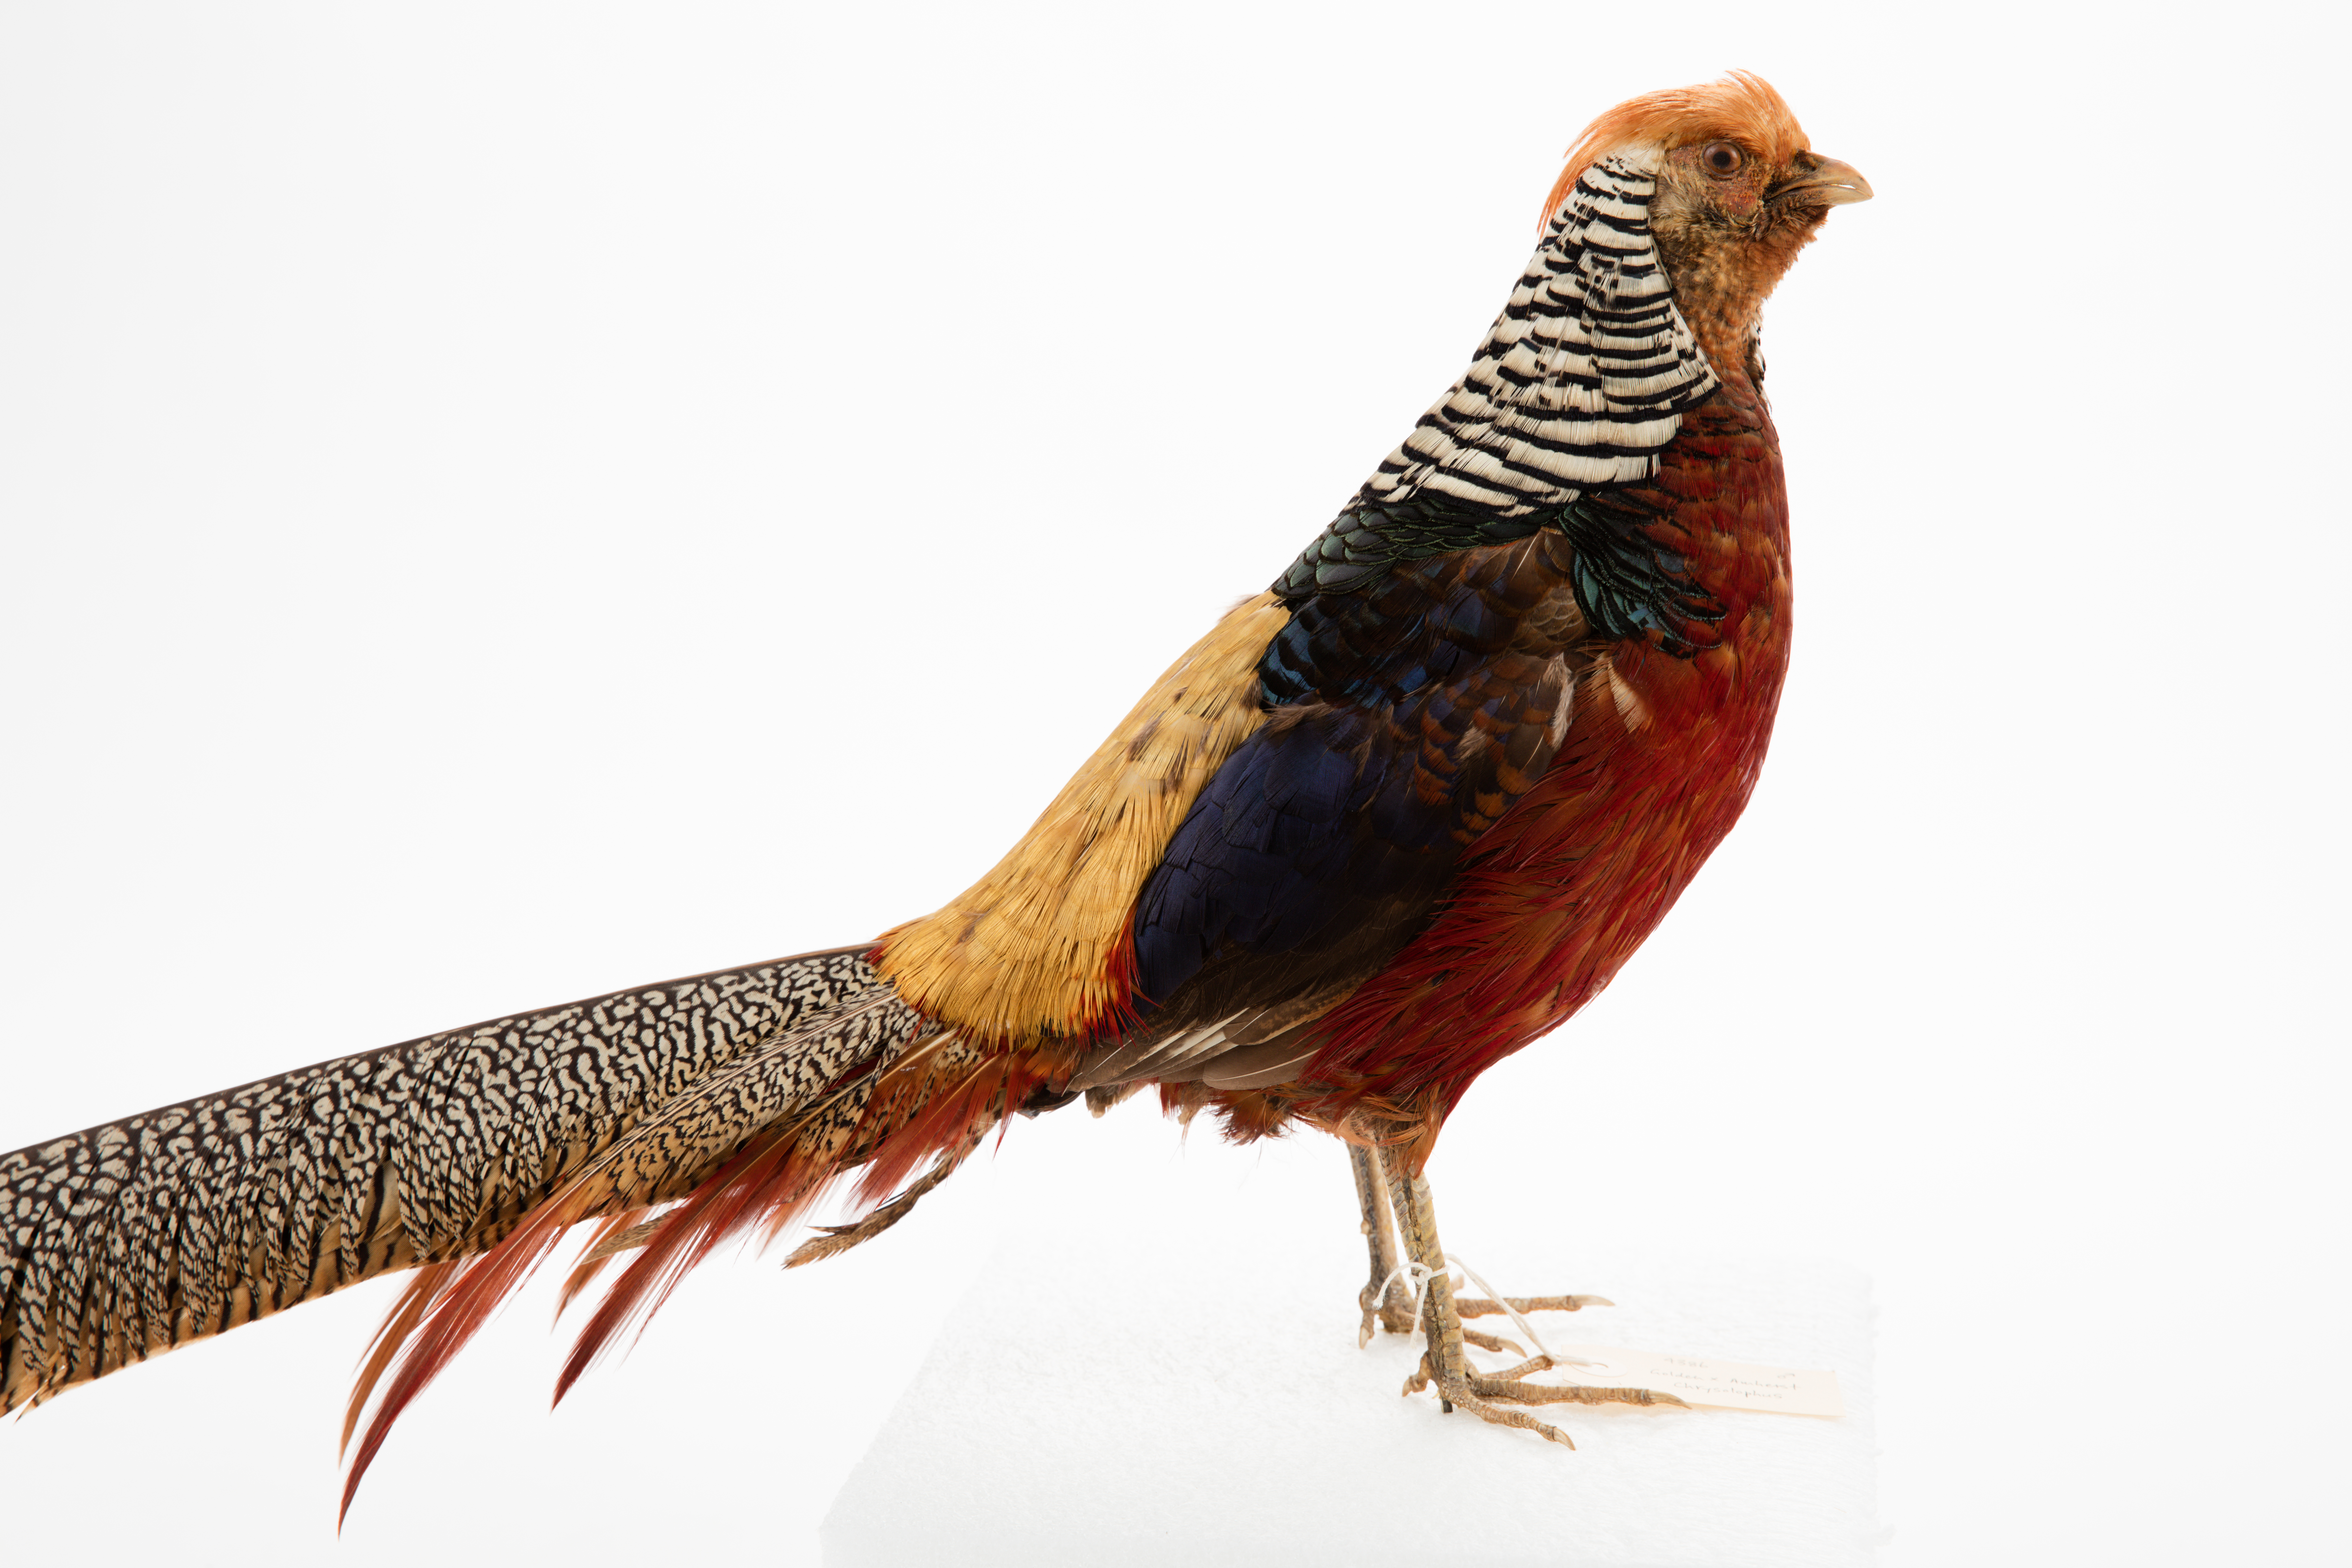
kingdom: Animalia
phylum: Chordata
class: Aves
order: Galliformes
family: Phasianidae
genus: Chrysolophus
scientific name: Chrysolophus amherstiae
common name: Lady amherst's pheasant
